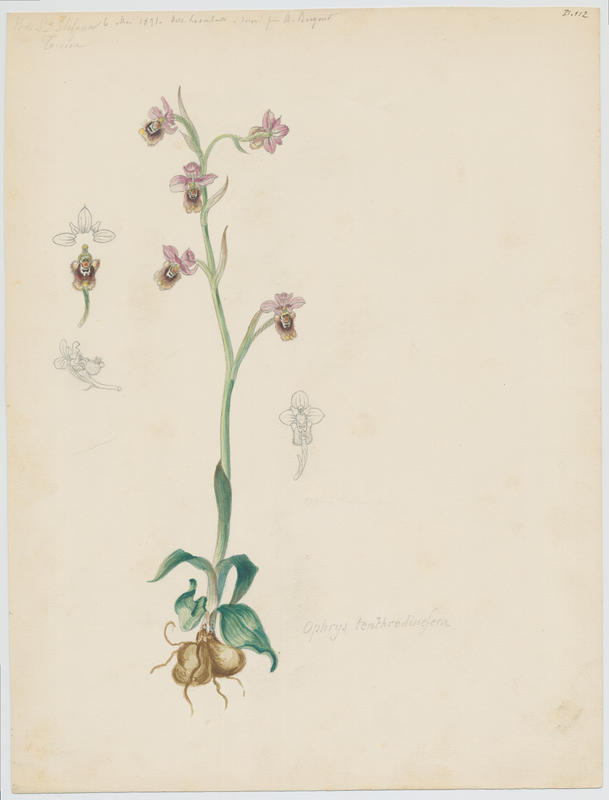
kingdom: Plantae
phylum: Tracheophyta
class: Liliopsida
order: Asparagales
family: Orchidaceae
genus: Ophrys
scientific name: Ophrys tenthredinifera
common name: Sawfly orchid
